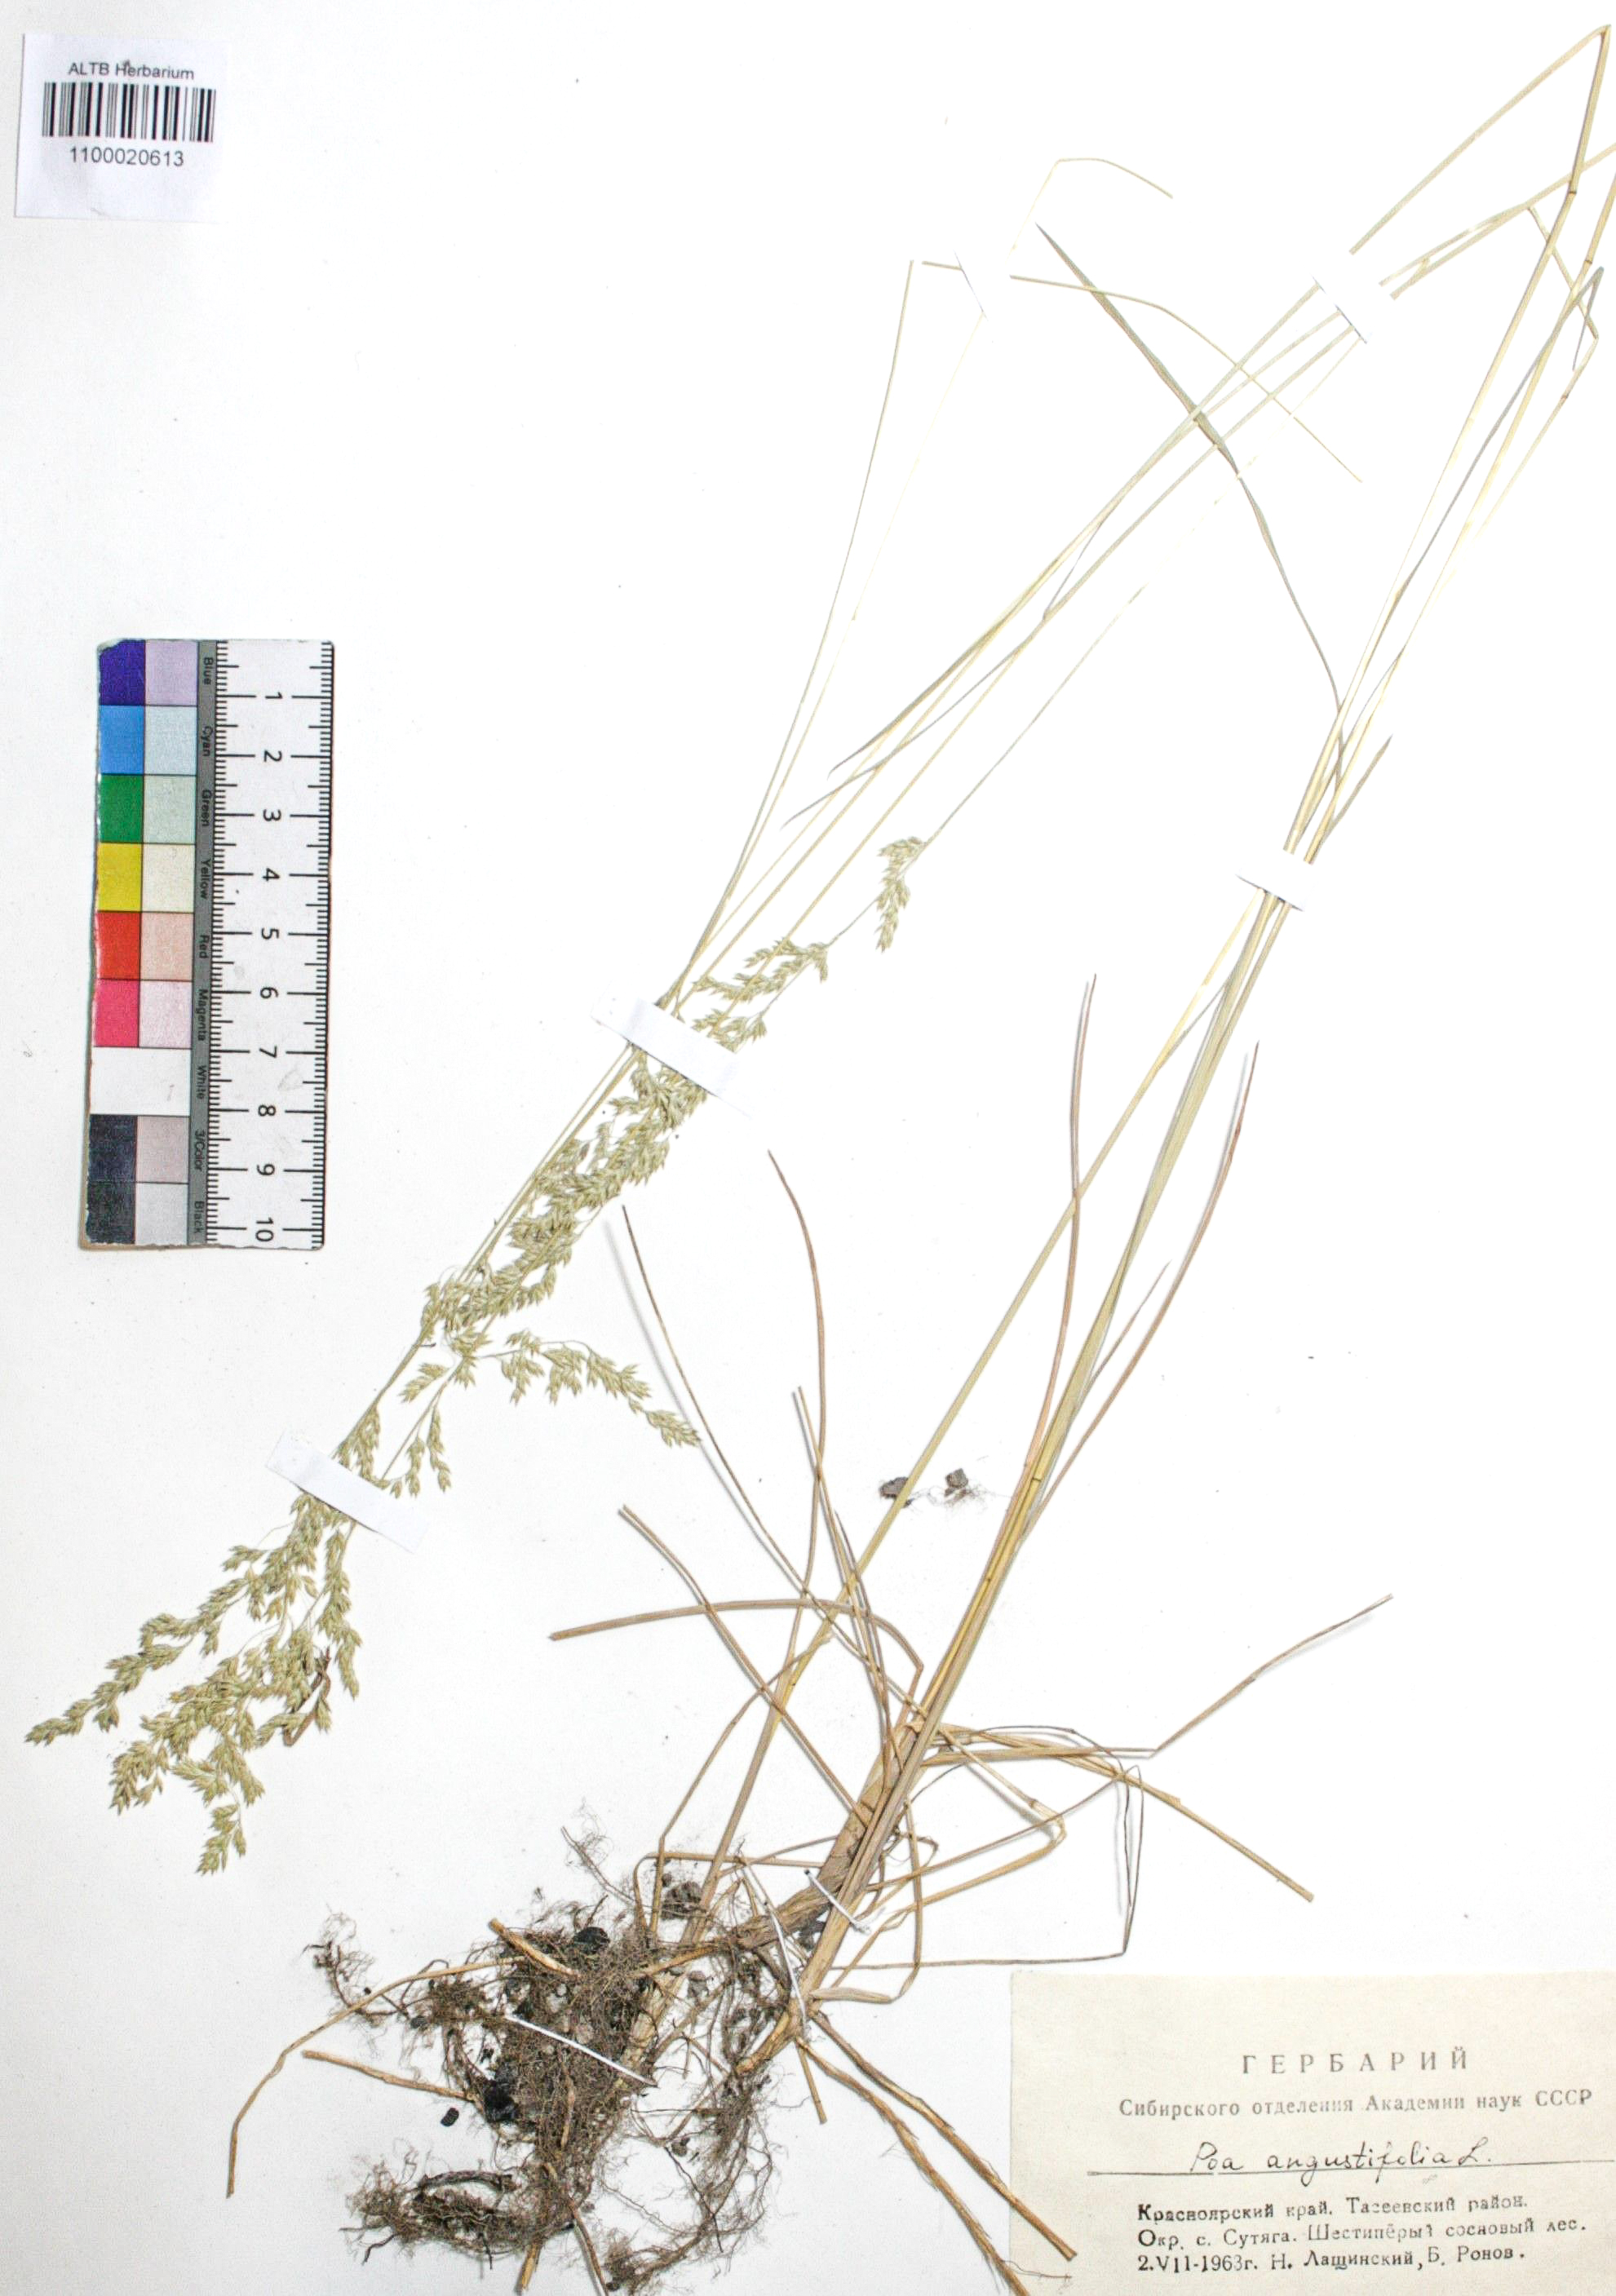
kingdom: Plantae
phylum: Tracheophyta
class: Liliopsida
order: Poales
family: Poaceae
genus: Poa
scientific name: Poa angustifolia
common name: Narrow-leaved meadow-grass
